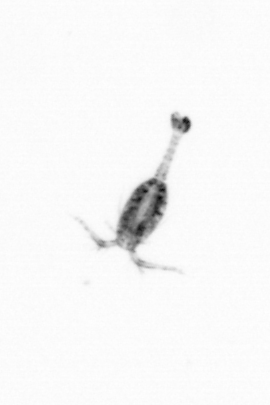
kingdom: Animalia
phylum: Arthropoda
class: Copepoda
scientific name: Copepoda
